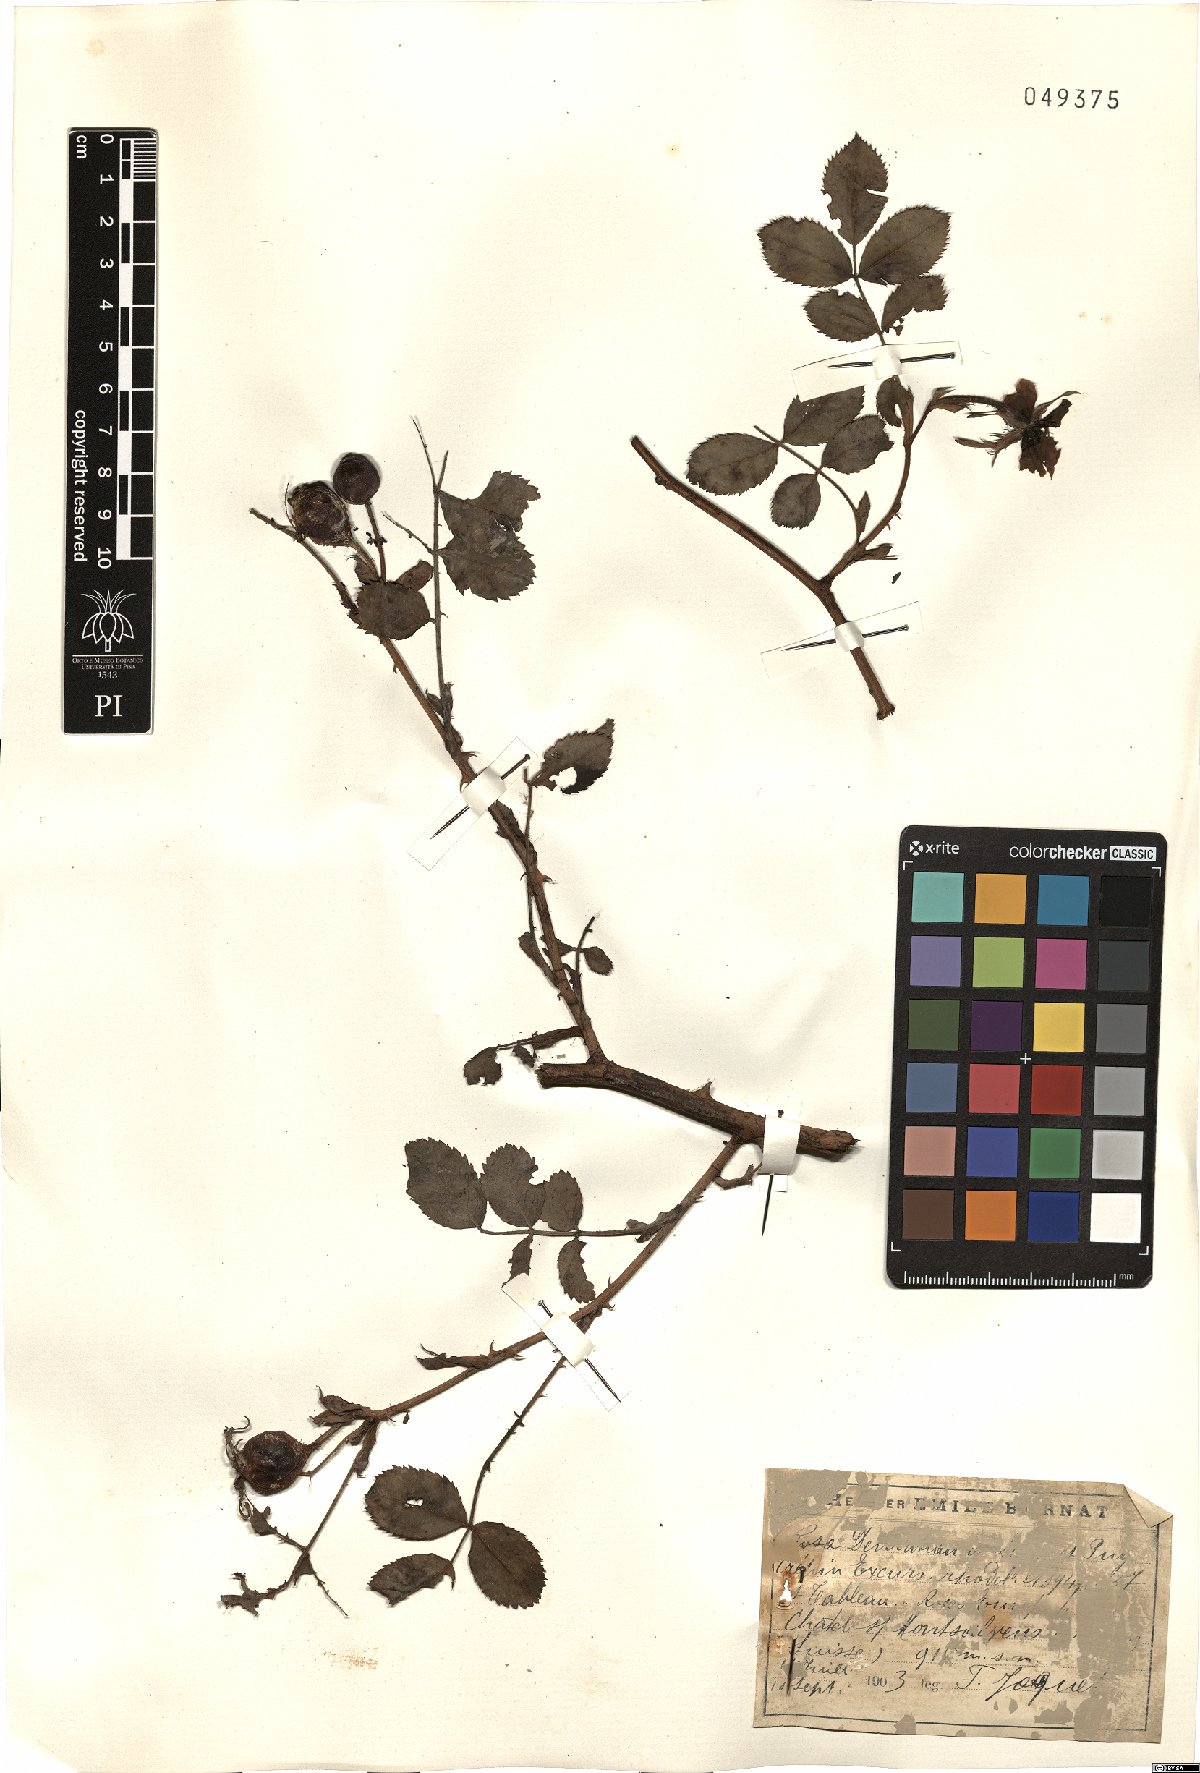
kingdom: Plantae
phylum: Tracheophyta
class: Magnoliopsida
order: Rosales
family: Rosaceae
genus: Rosa
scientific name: Rosa abietina
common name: Needle rose
